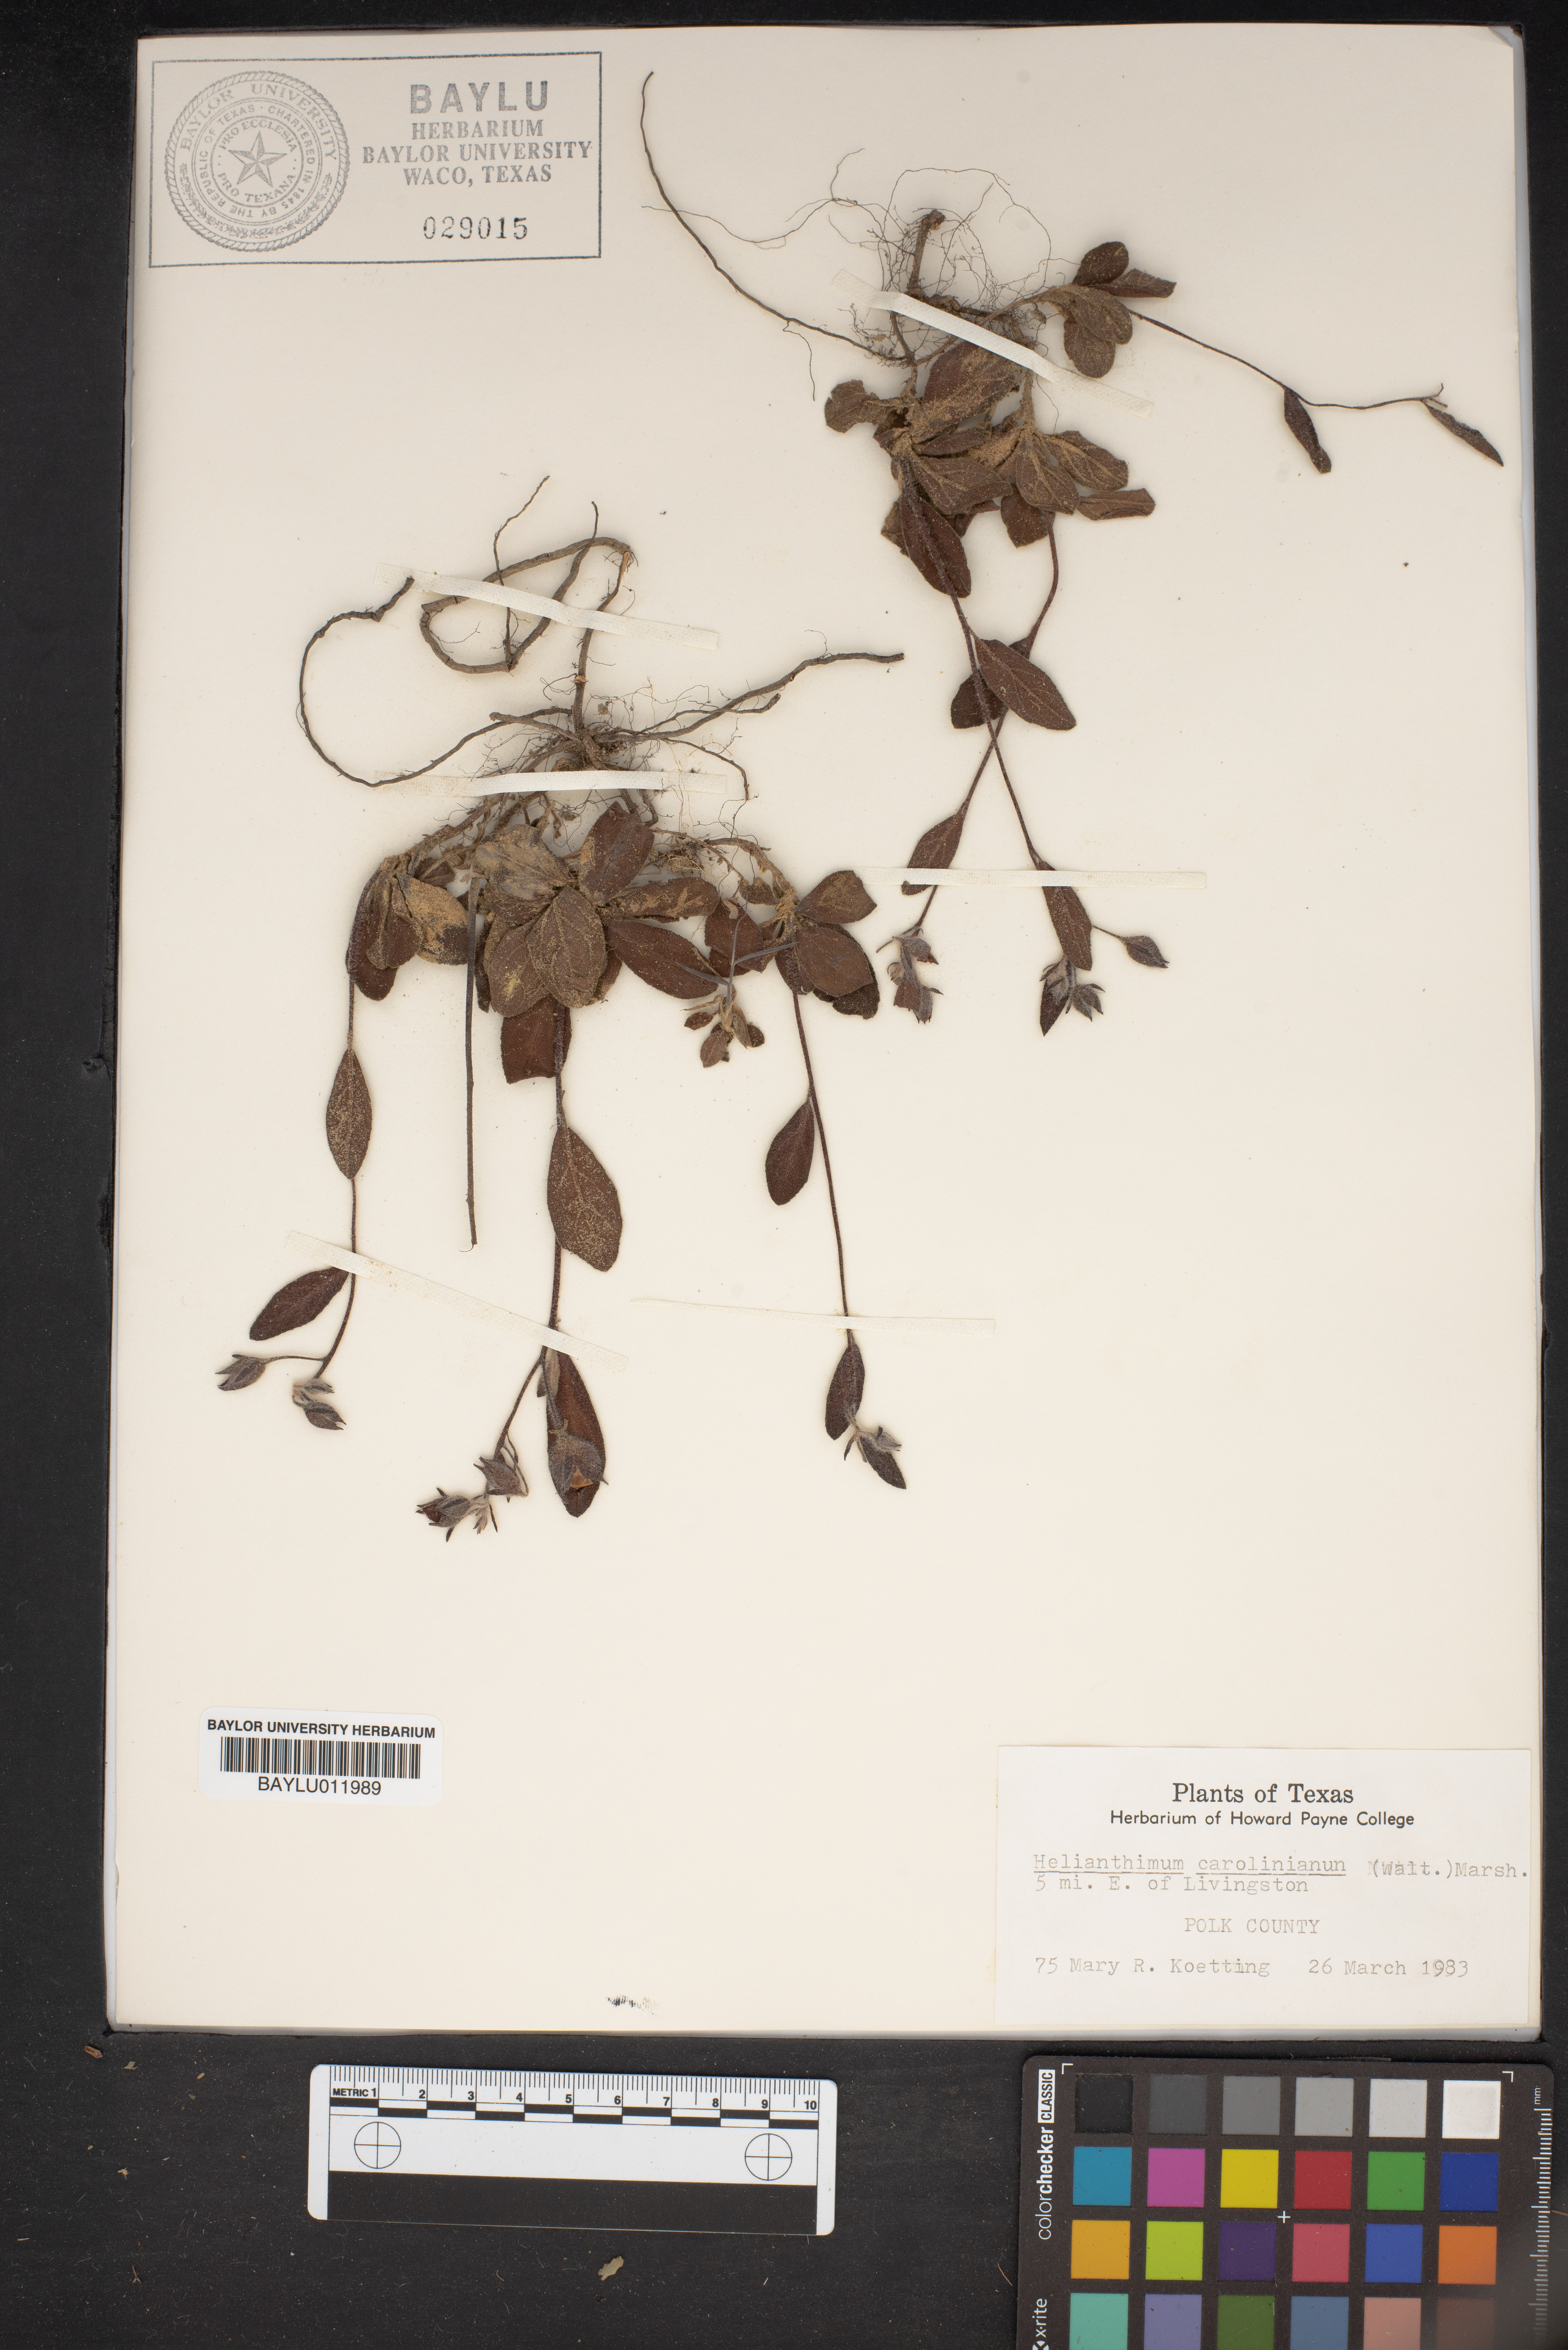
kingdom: Plantae
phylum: Tracheophyta
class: Magnoliopsida
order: Malvales
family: Cistaceae
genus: Crocanthemum
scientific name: Crocanthemum carolinianum
